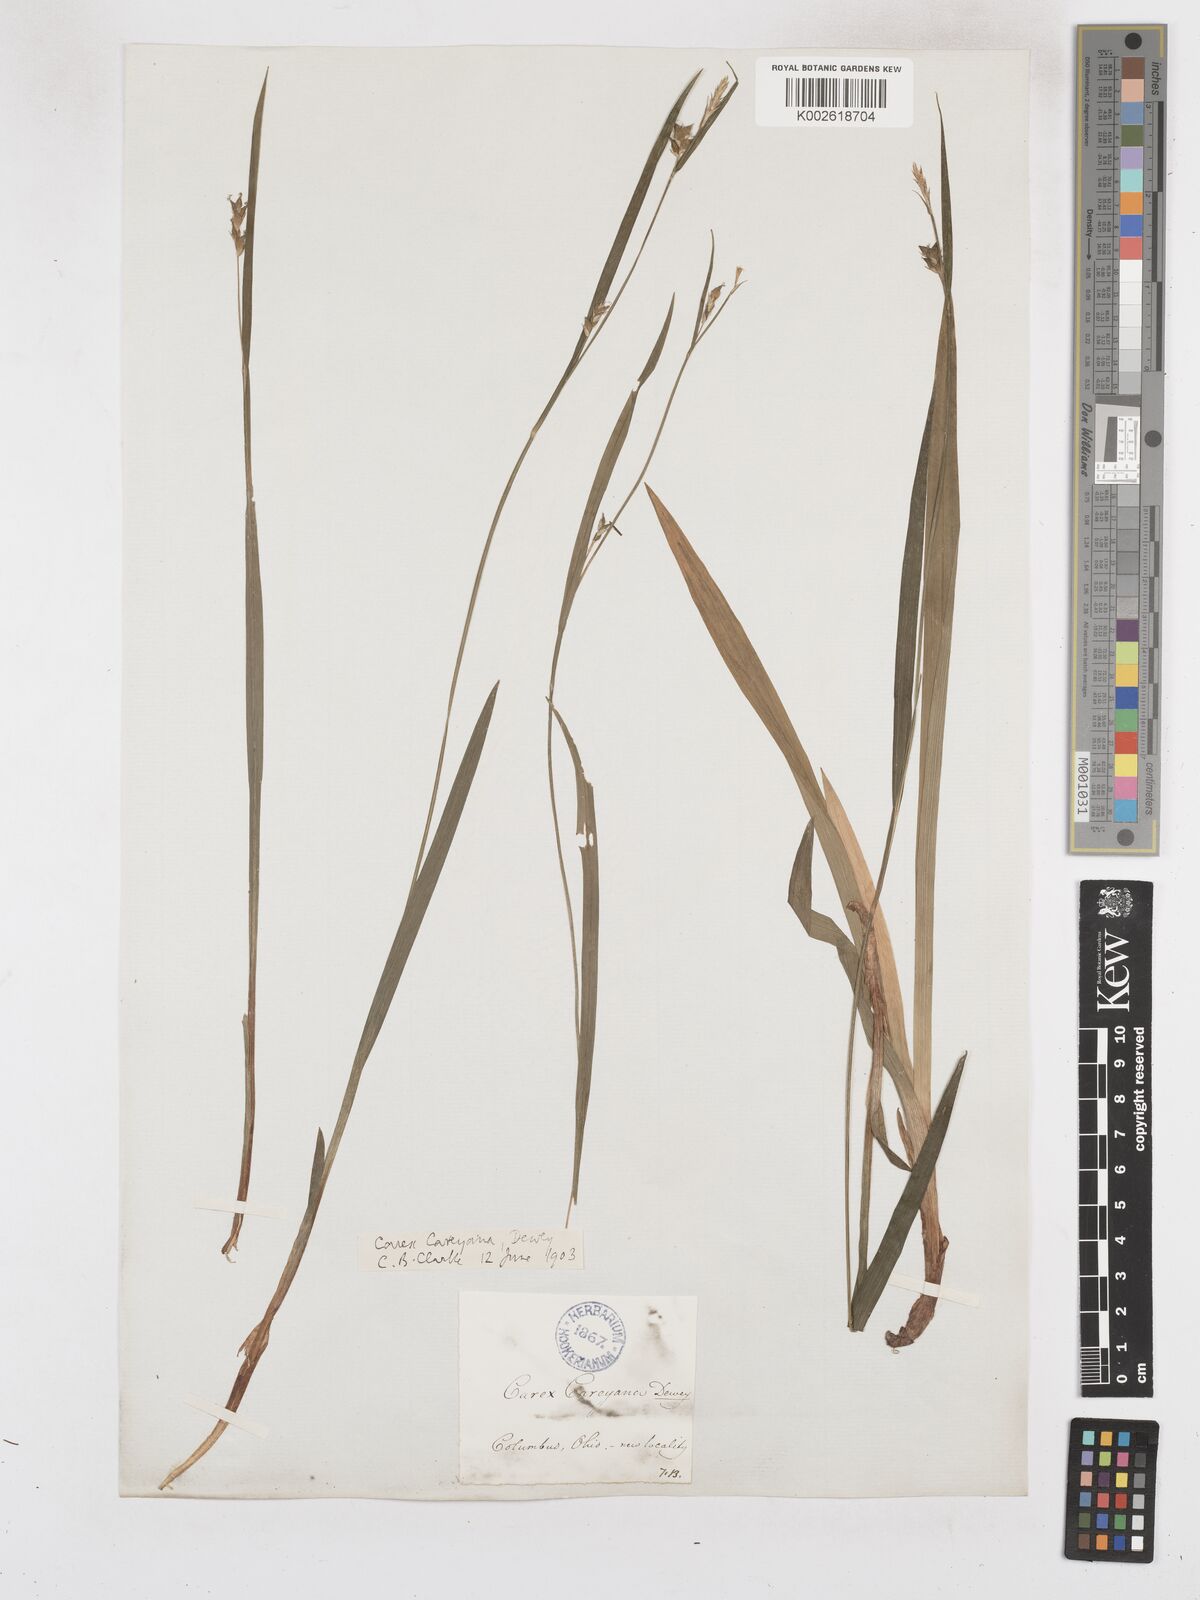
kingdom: Plantae
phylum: Tracheophyta
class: Liliopsida
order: Poales
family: Cyperaceae
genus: Carex
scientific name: Carex careyana
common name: Carey's sedge
